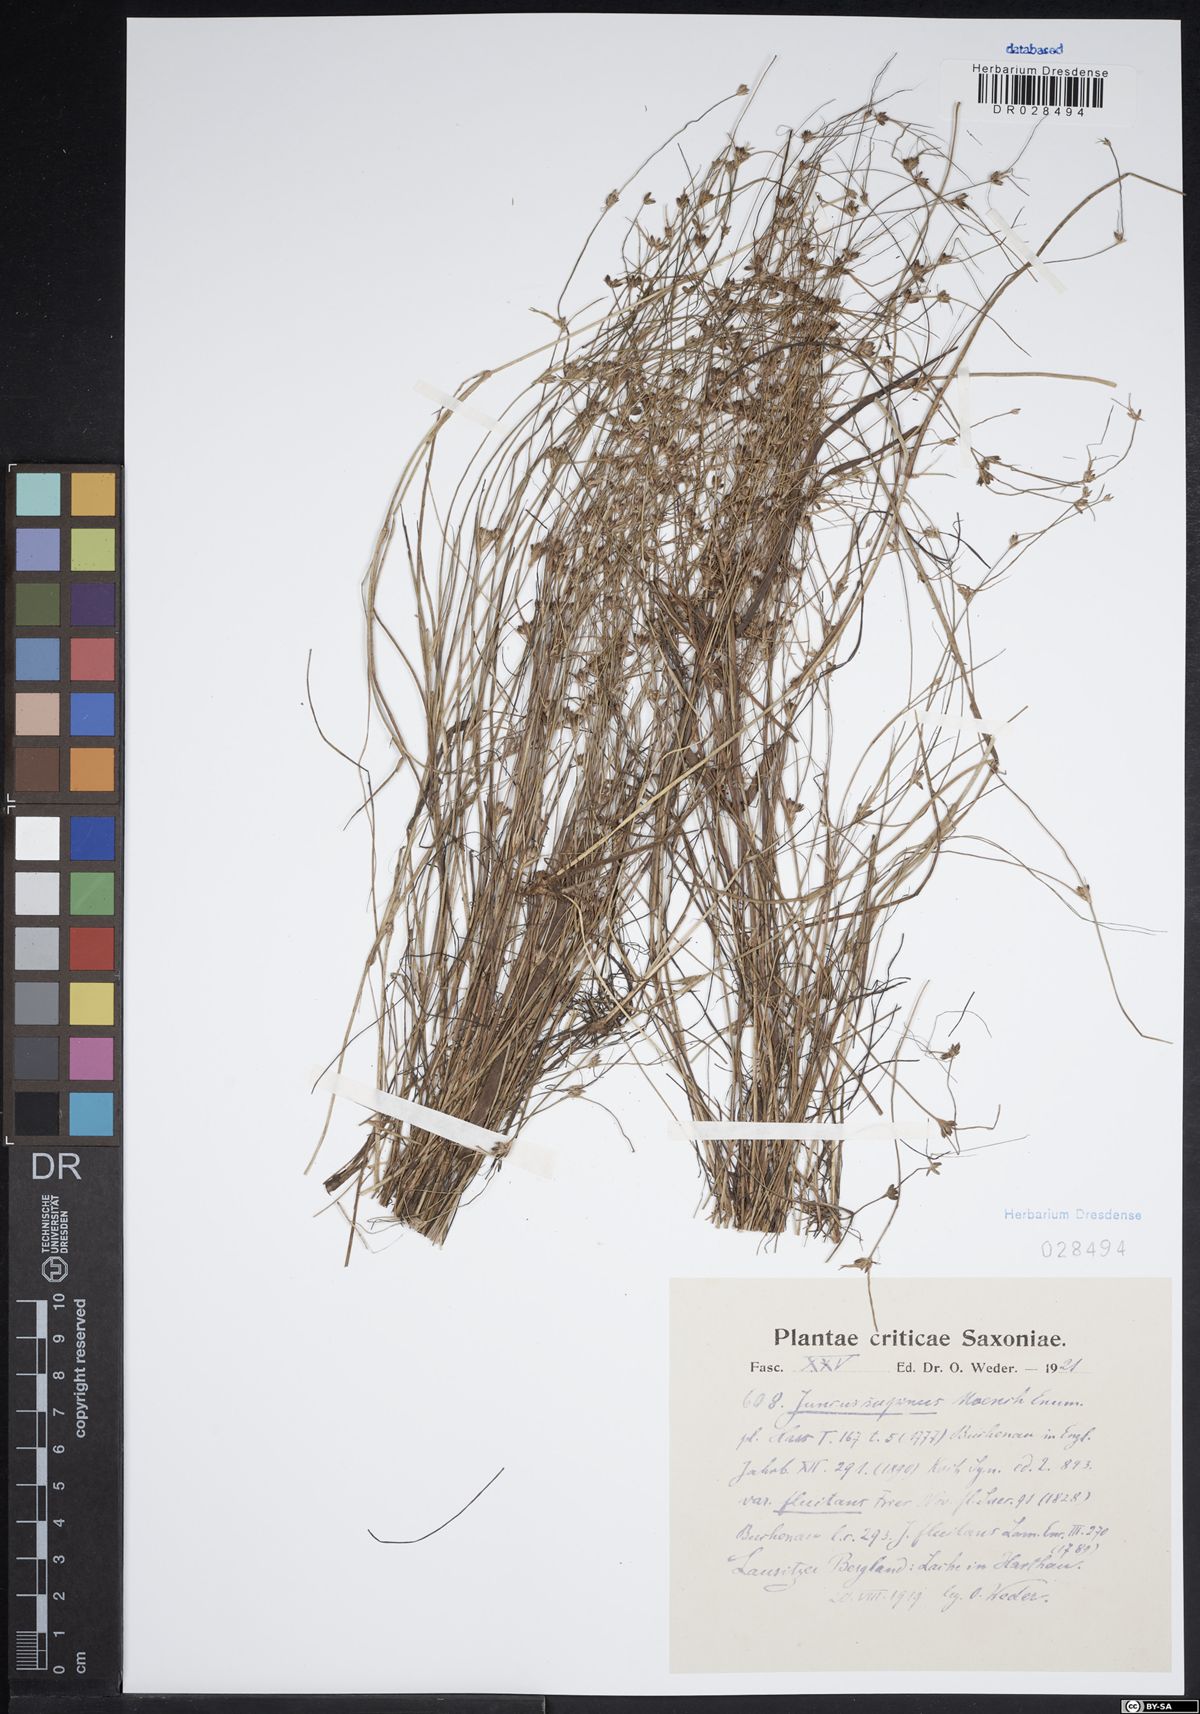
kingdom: Plantae
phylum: Tracheophyta
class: Liliopsida
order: Poales
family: Juncaceae
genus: Juncus
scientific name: Juncus bulbosus
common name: Bulbous rush
